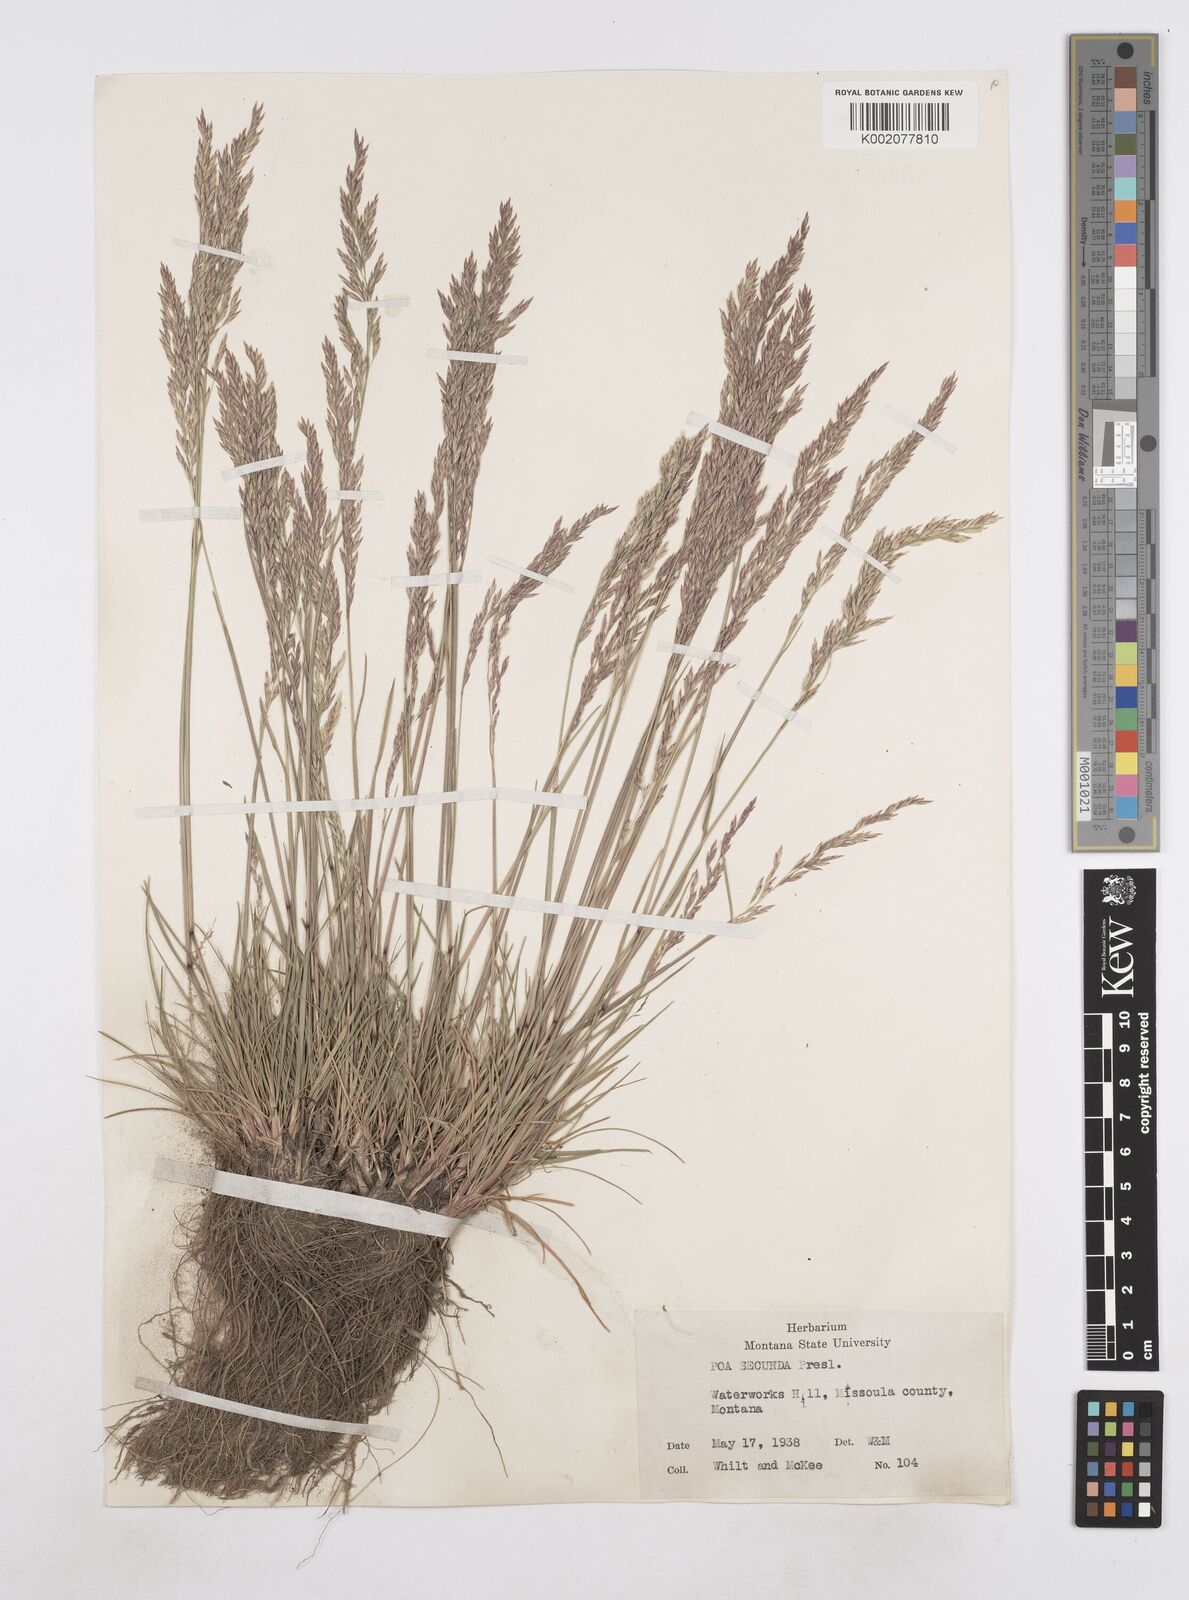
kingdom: Plantae
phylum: Tracheophyta
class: Liliopsida
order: Poales
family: Poaceae
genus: Poa
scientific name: Poa secunda
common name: Sandberg bluegrass
